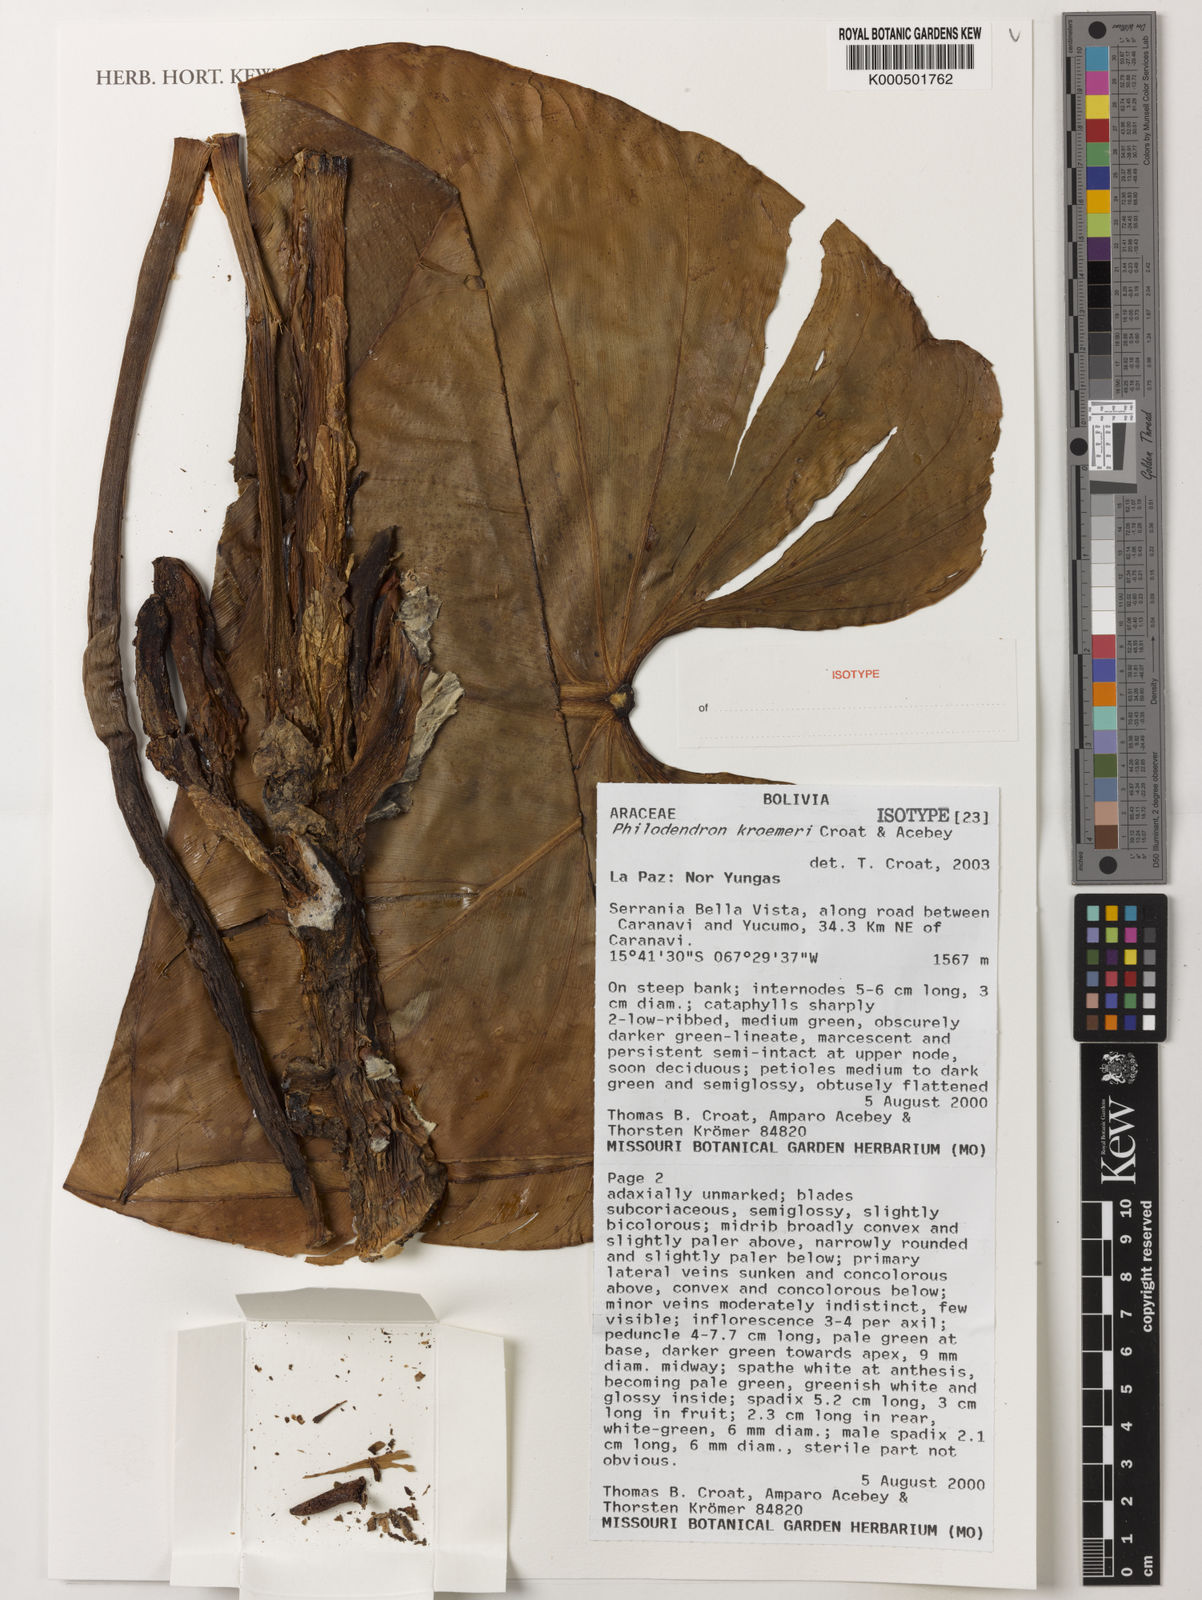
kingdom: Plantae
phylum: Tracheophyta
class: Liliopsida
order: Alismatales
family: Araceae
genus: Philodendron
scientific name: Philodendron kroemeri
